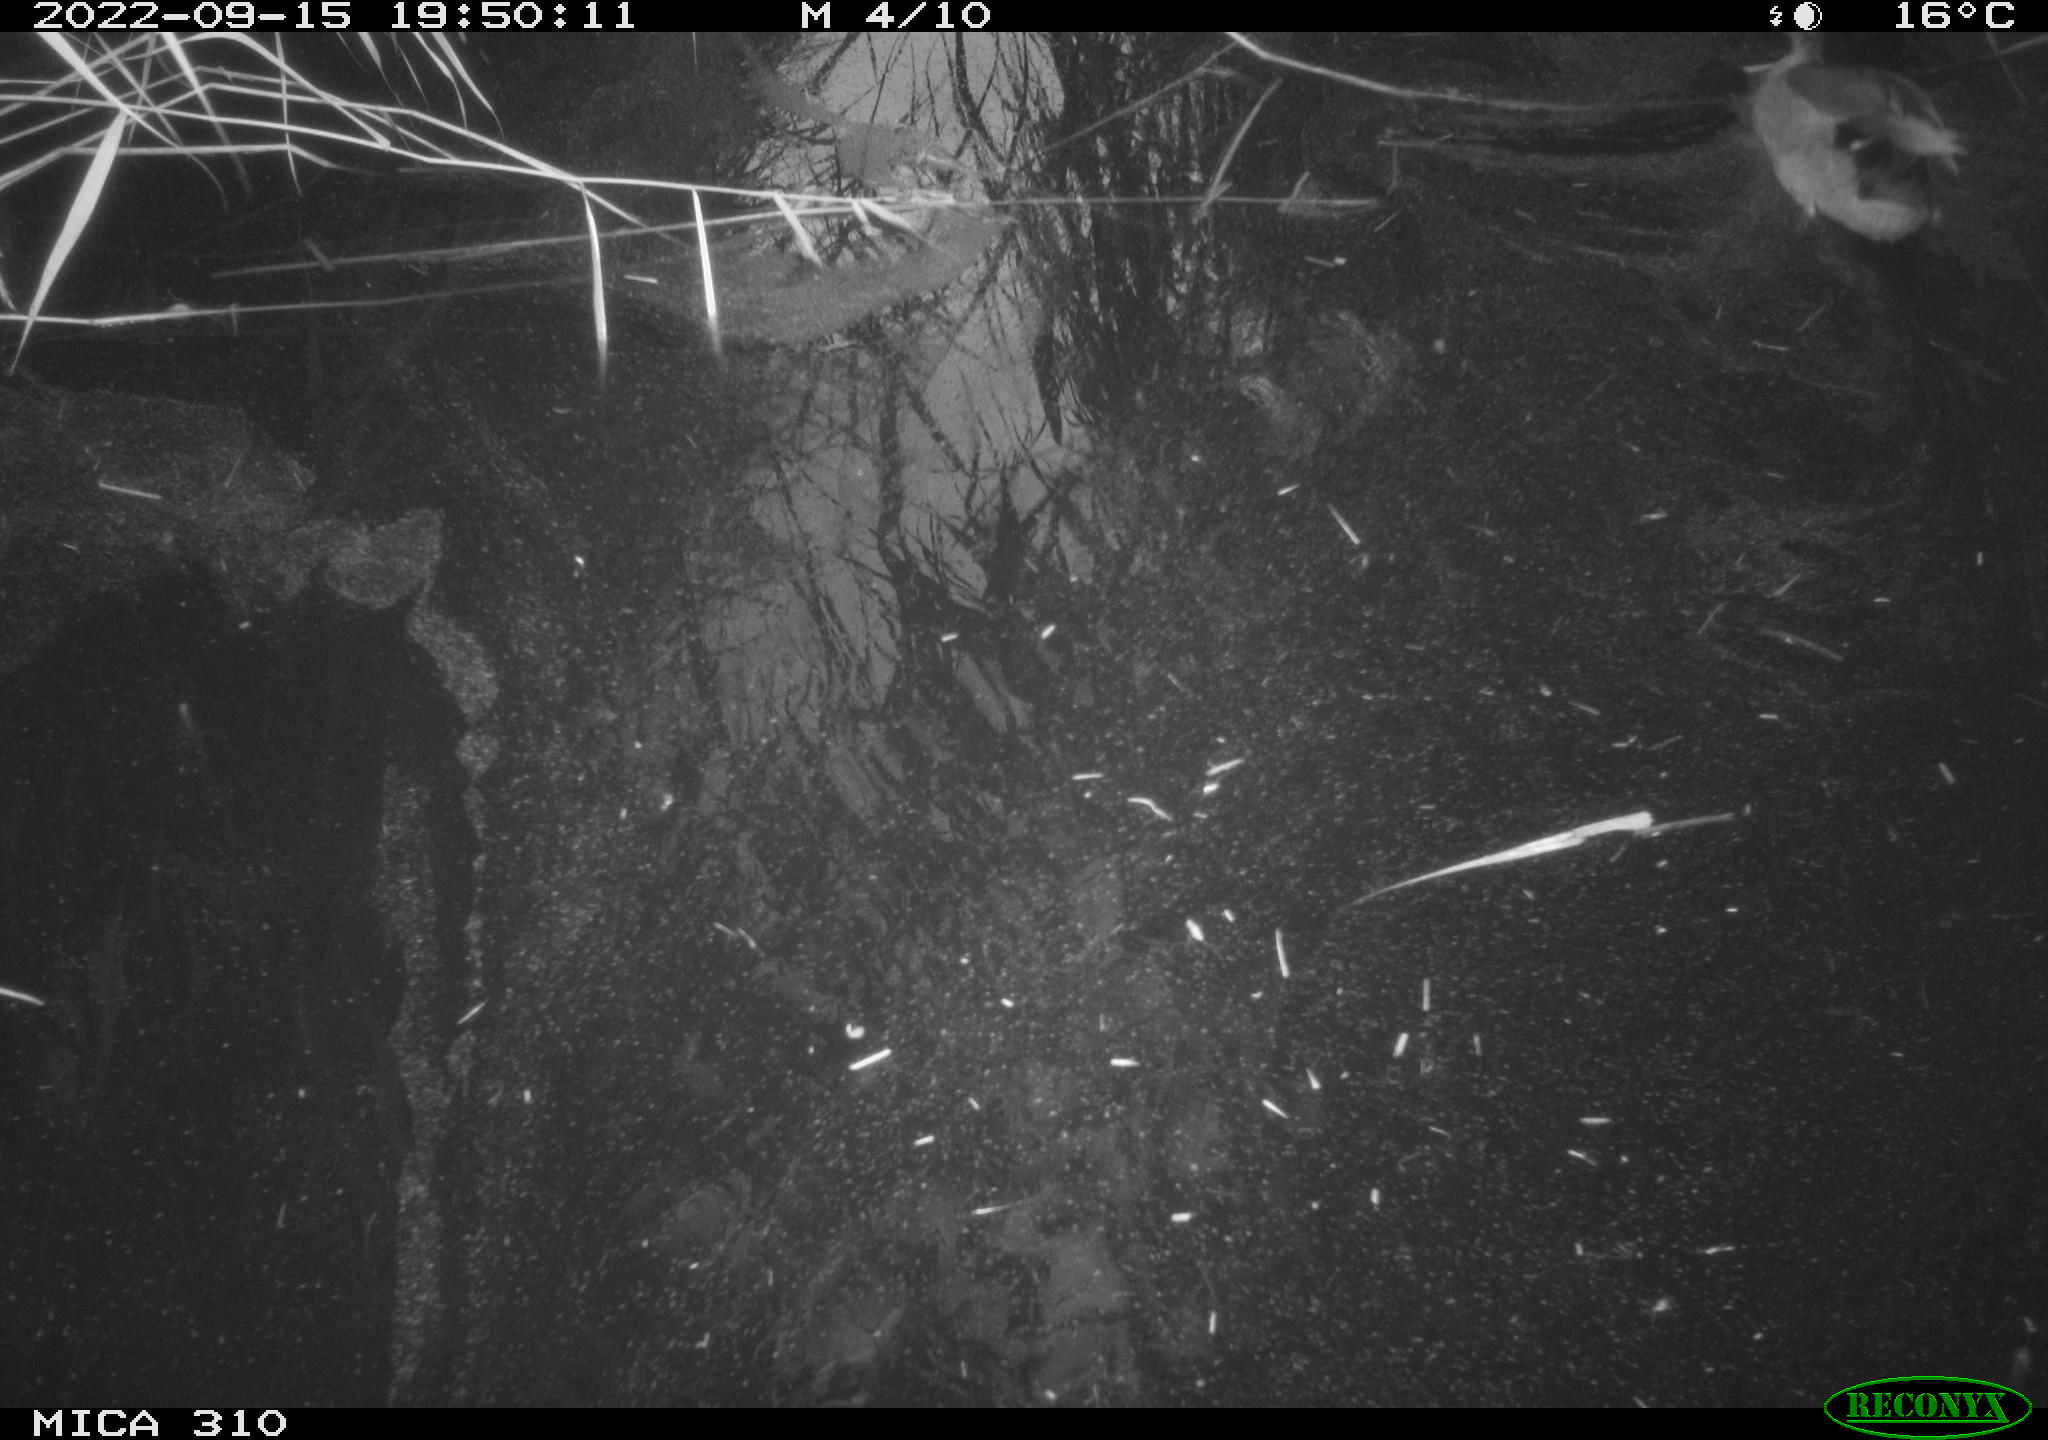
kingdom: Animalia
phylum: Chordata
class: Aves
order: Anseriformes
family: Anatidae
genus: Anas
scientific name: Anas
